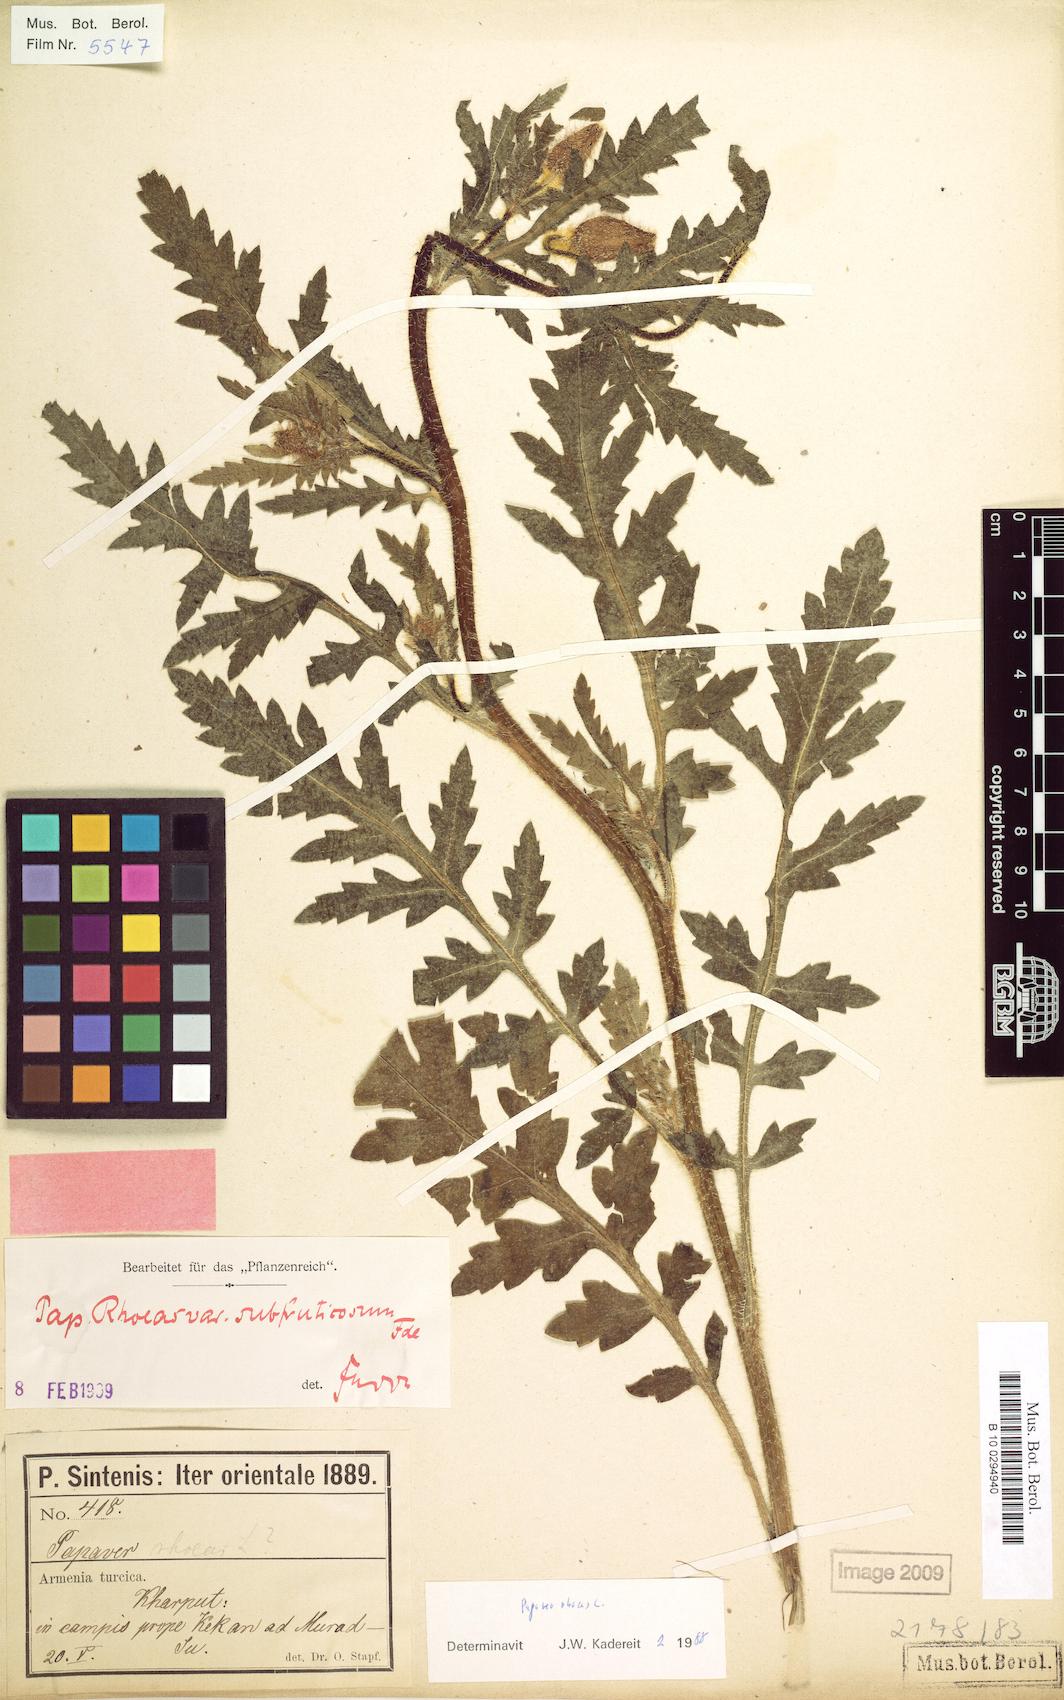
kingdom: Plantae
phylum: Tracheophyta
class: Magnoliopsida
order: Ranunculales
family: Papaveraceae
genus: Papaver
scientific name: Papaver rhoeas
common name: Corn poppy
